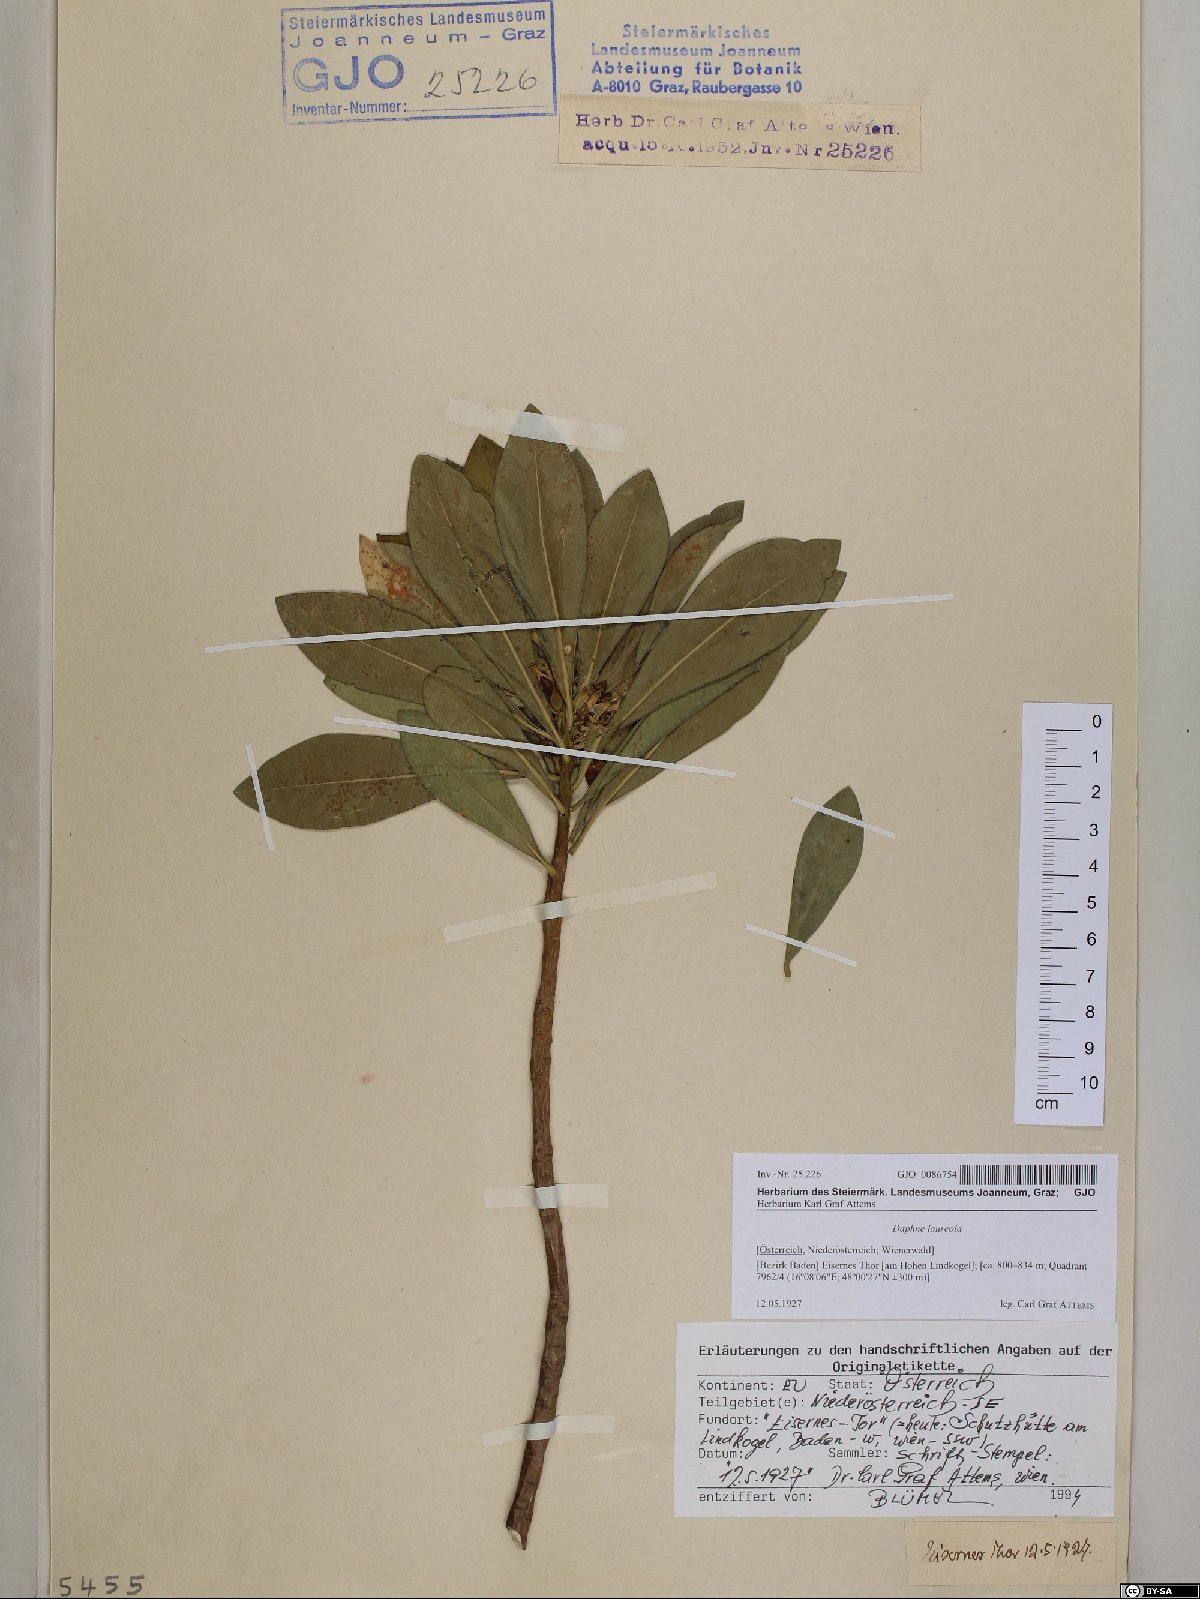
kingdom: Plantae
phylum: Tracheophyta
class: Magnoliopsida
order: Malvales
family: Thymelaeaceae
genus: Daphne
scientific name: Daphne laureola
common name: Spurge-laurel
